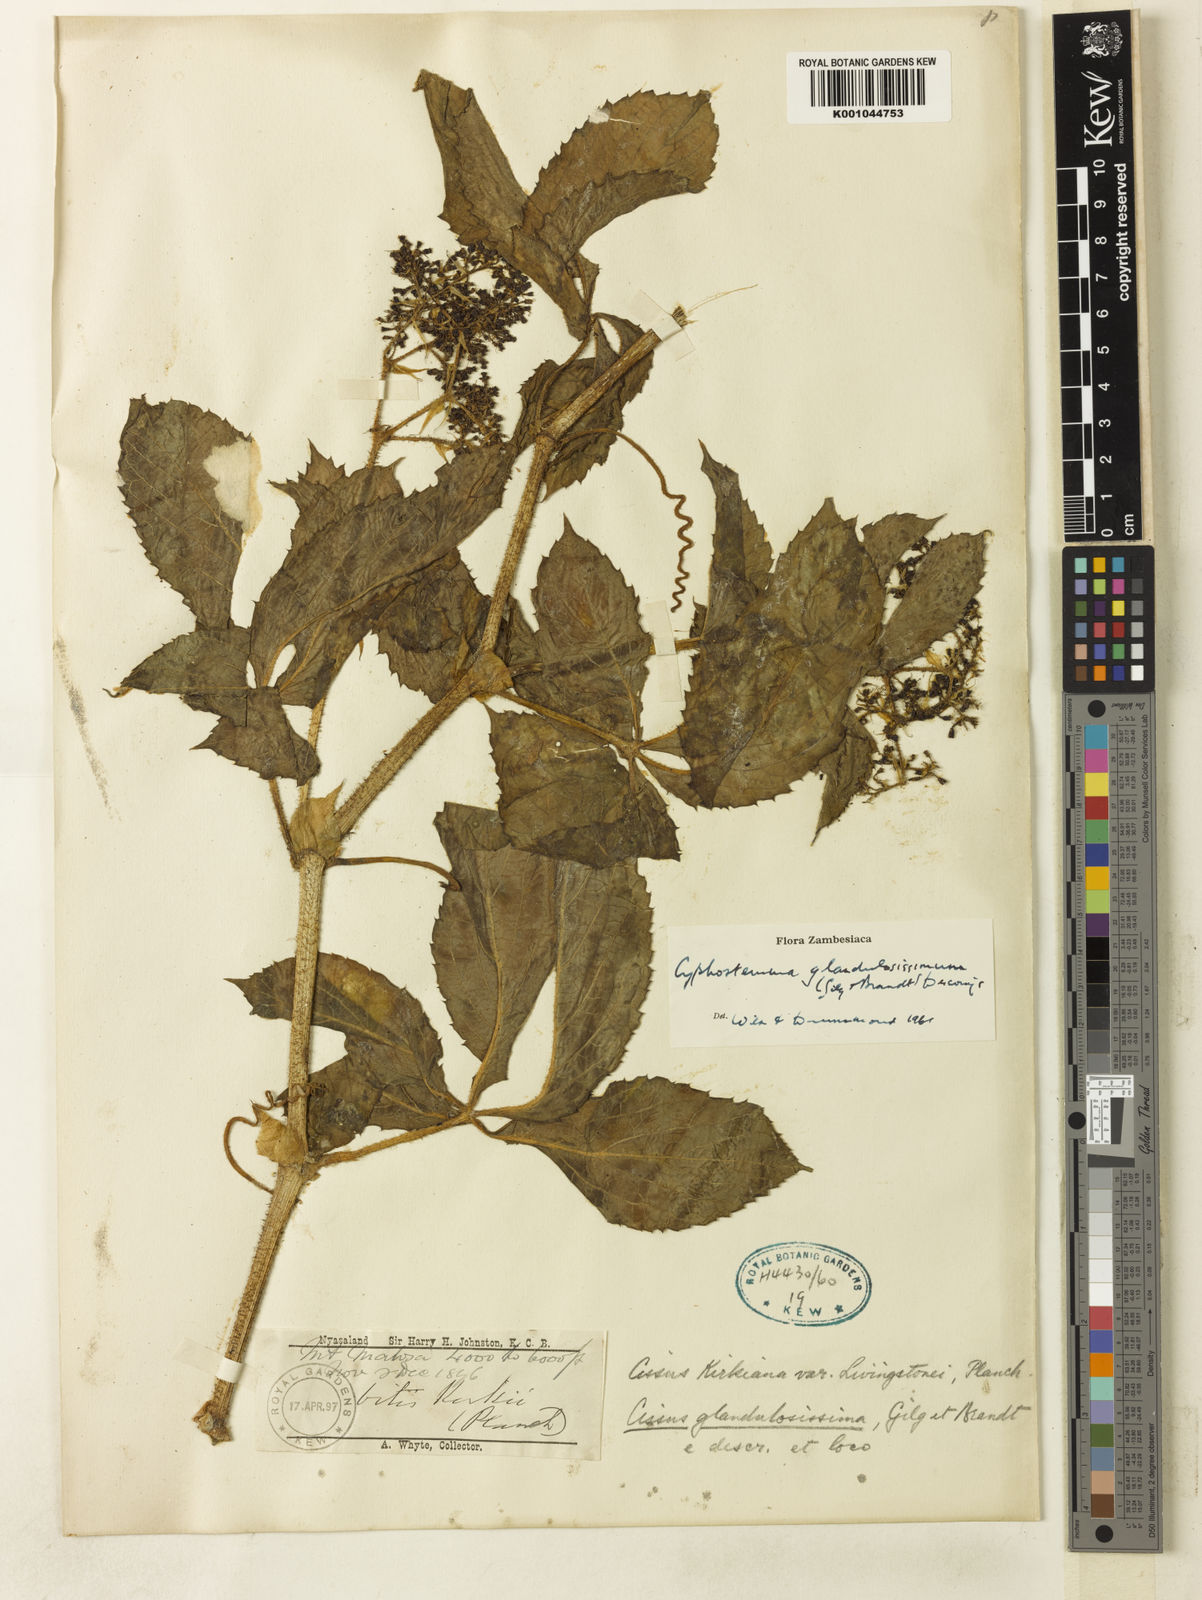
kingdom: Plantae
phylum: Tracheophyta
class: Magnoliopsida
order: Vitales
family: Vitaceae
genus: Cyphostemma
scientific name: Cyphostemma
